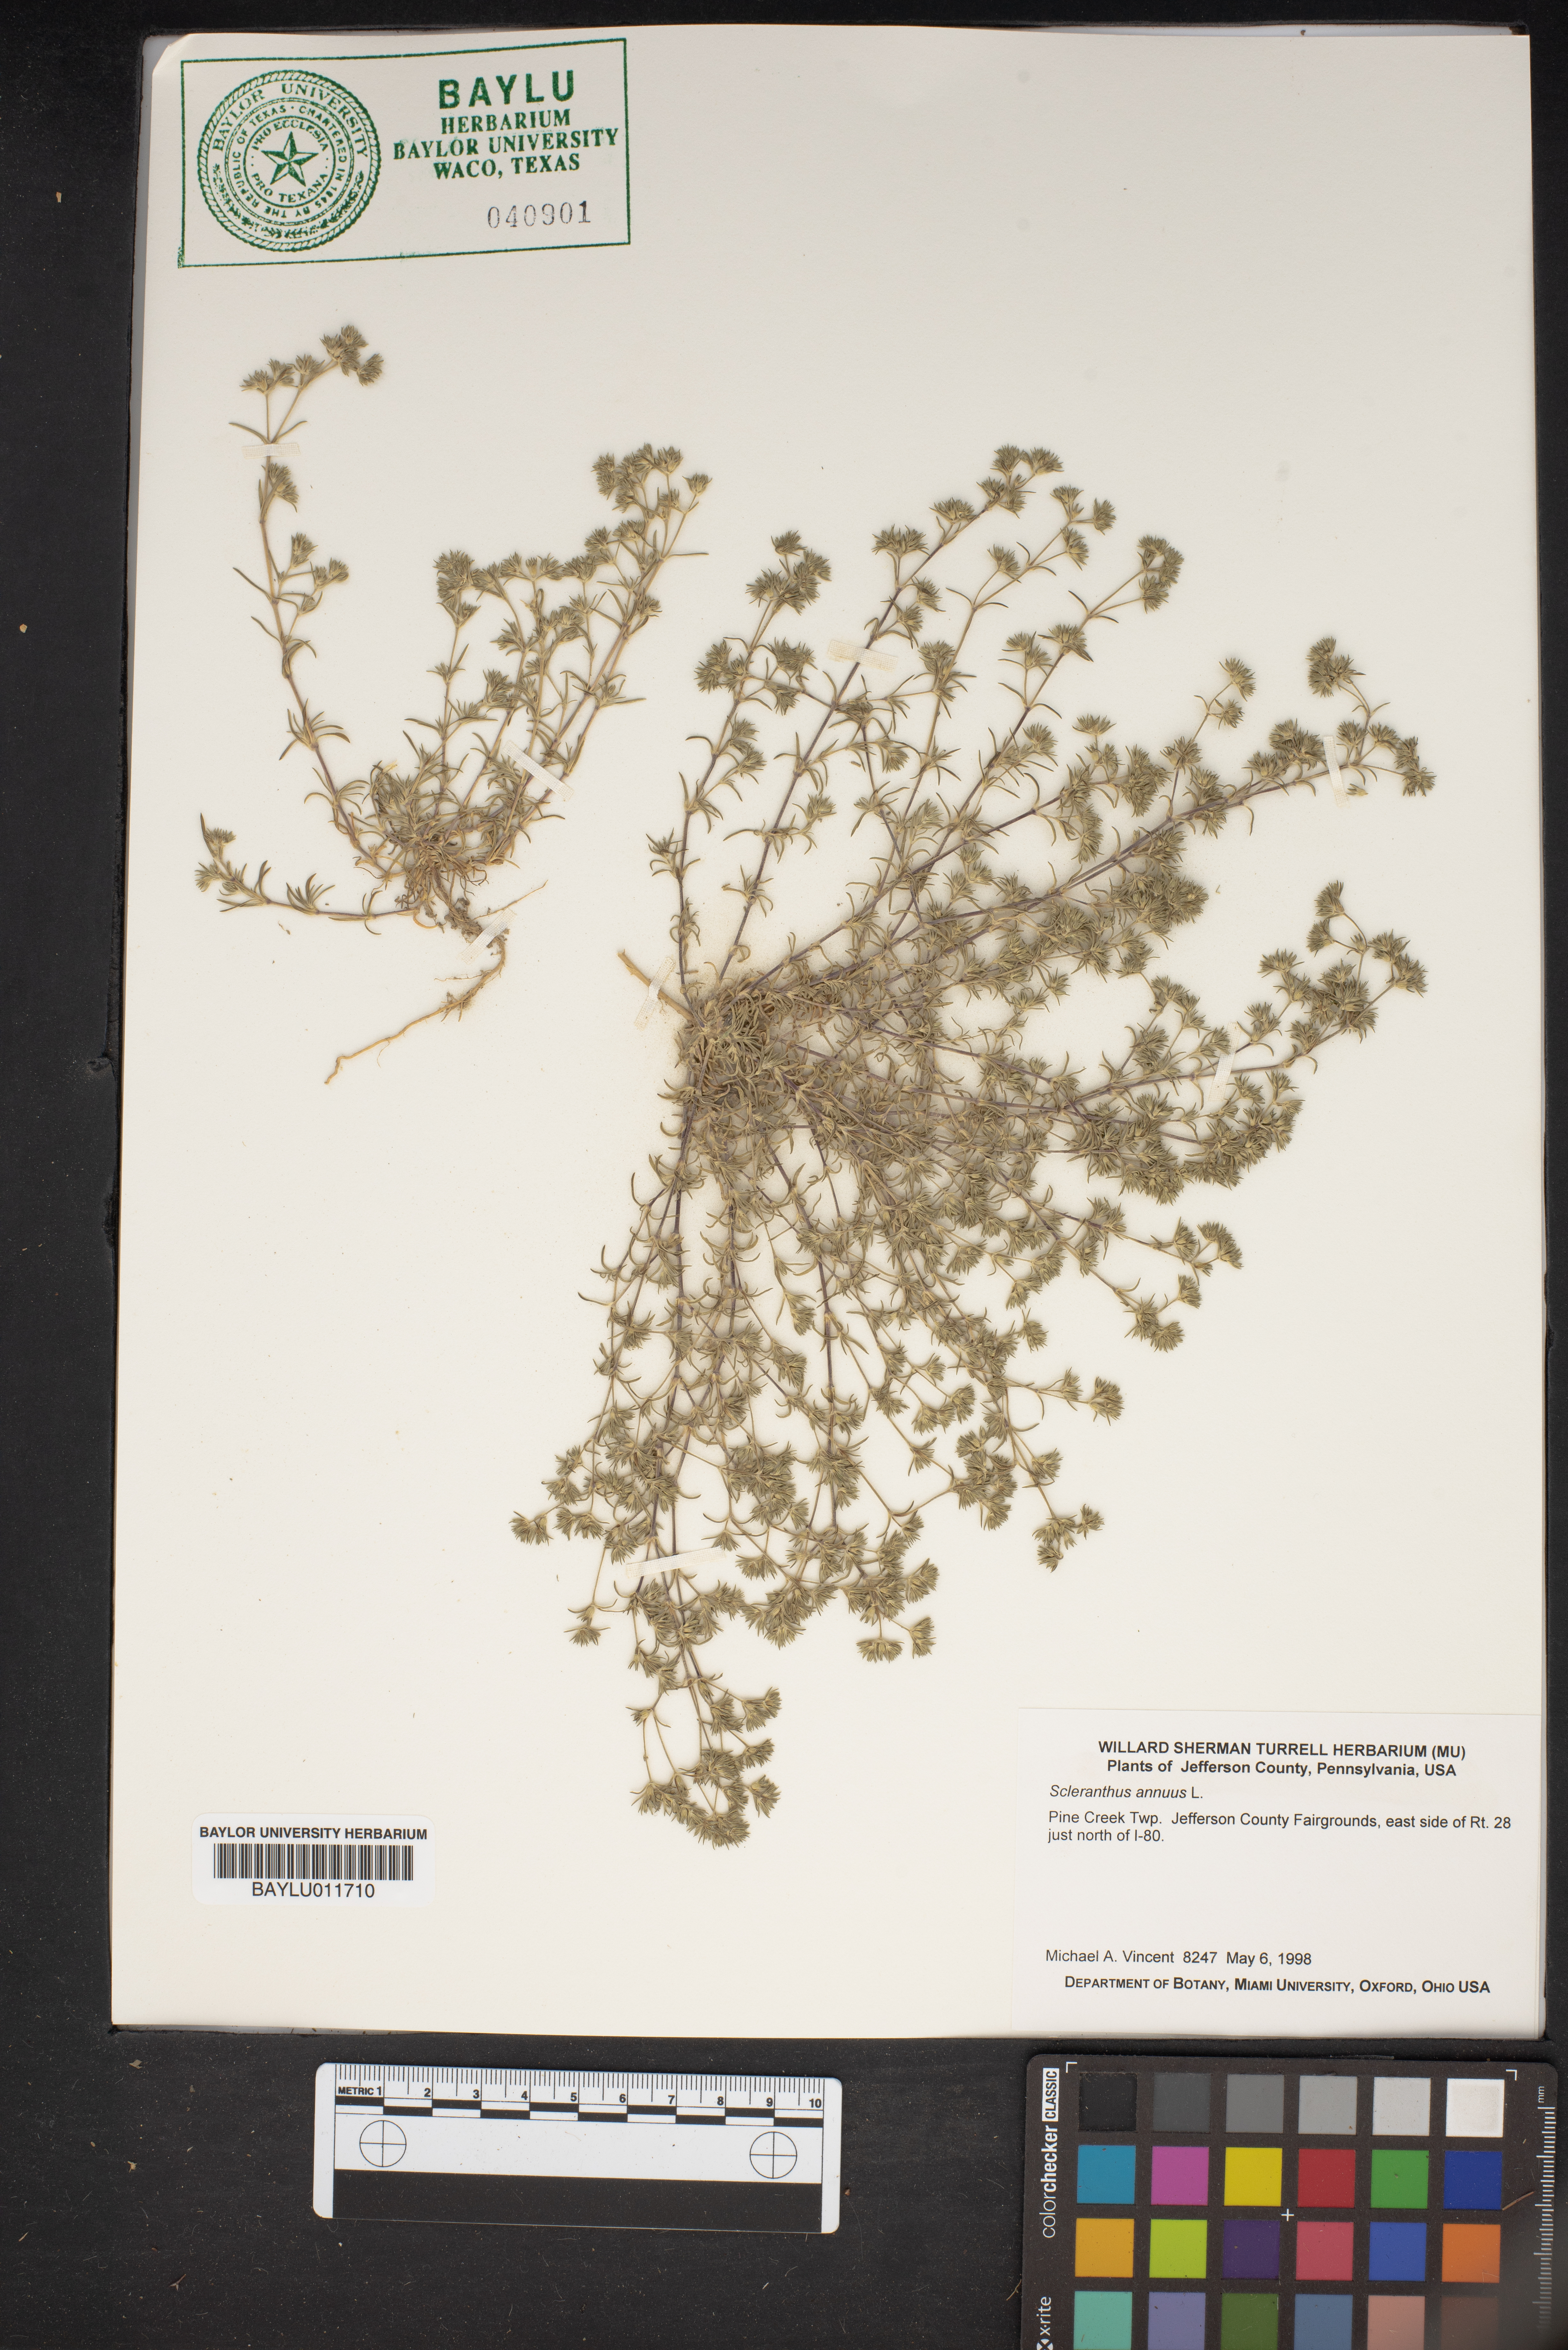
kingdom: Plantae
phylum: Tracheophyta
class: Magnoliopsida
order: Caryophyllales
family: Caryophyllaceae
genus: Scleranthus
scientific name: Scleranthus annuus
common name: Annual knawel
